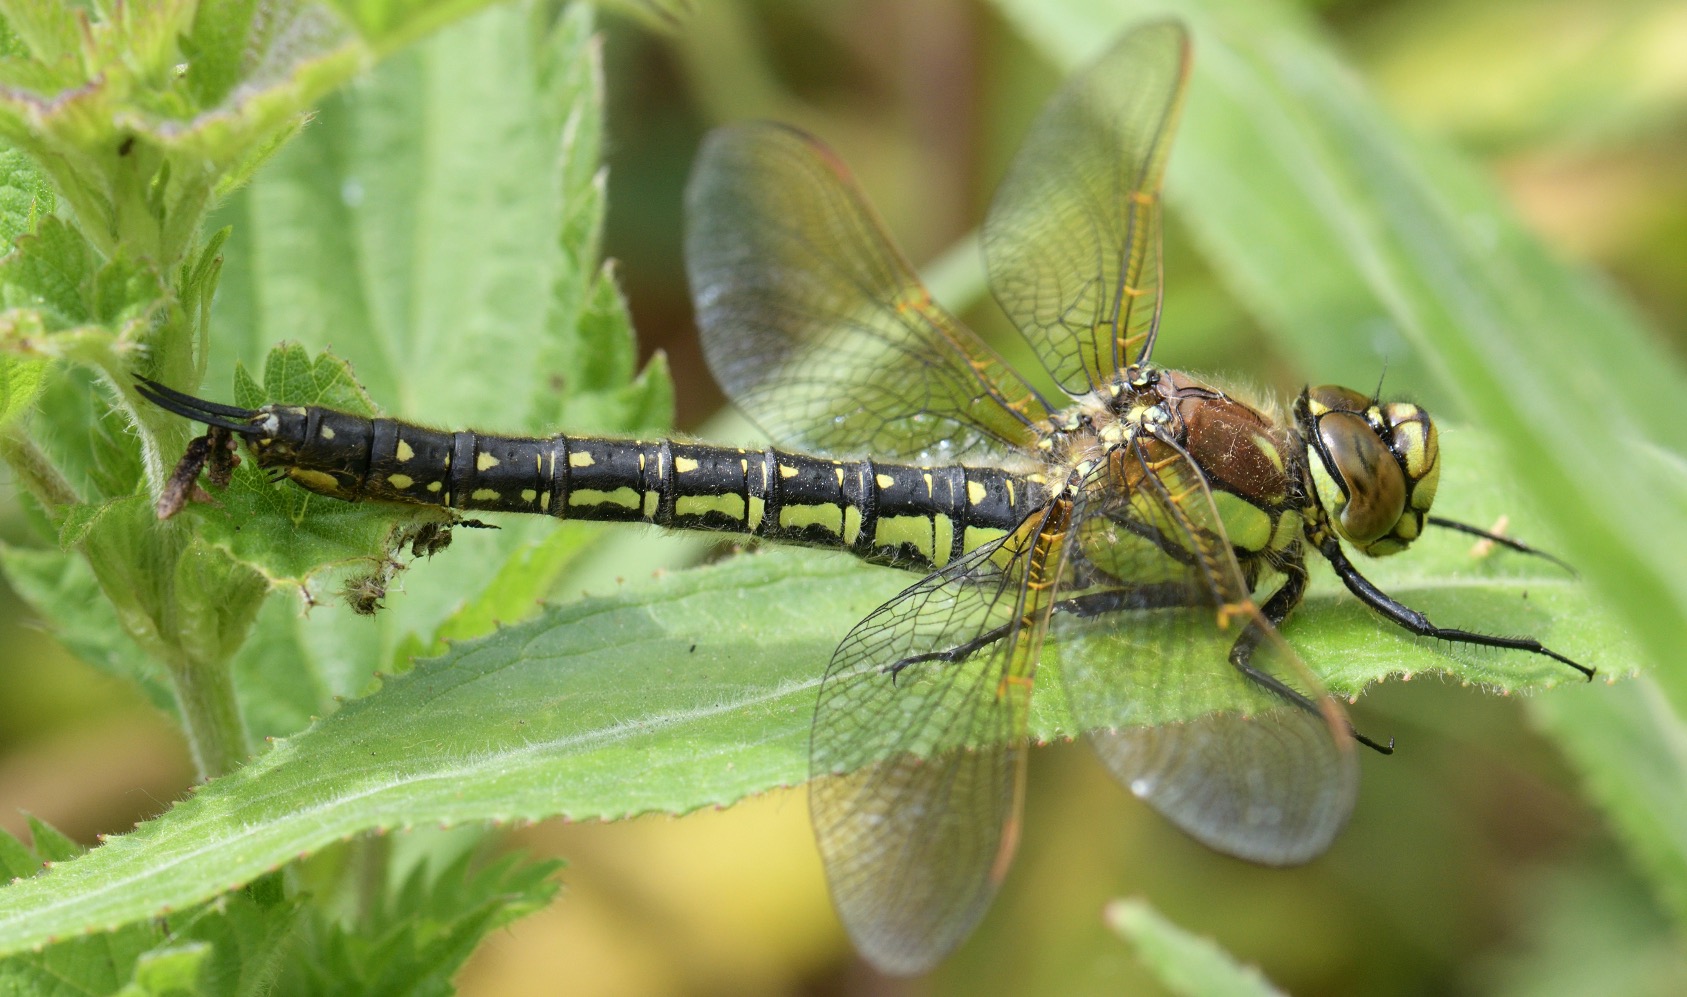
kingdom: Animalia
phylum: Arthropoda
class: Insecta
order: Odonata
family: Aeshnidae
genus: Brachytron
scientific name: Brachytron pratense
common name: Håret mosaikguldsmed
